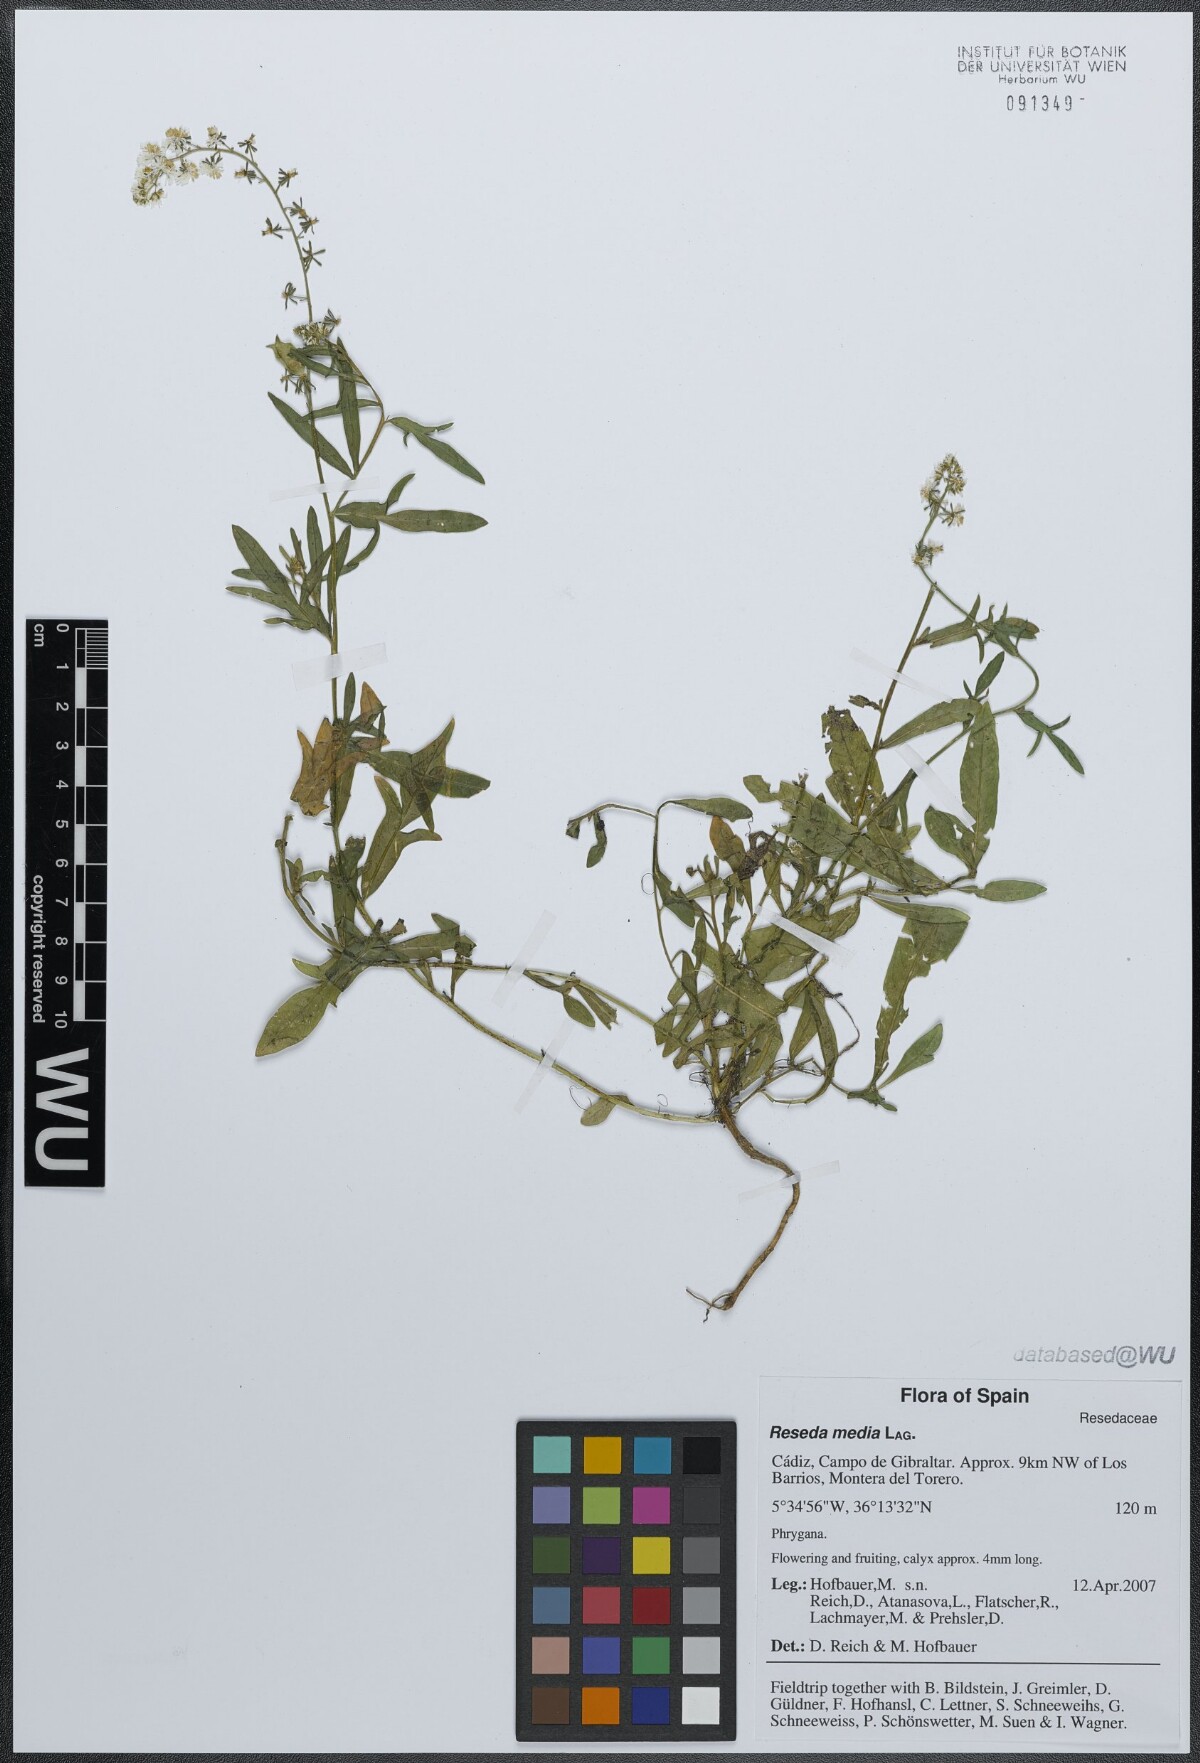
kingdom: Plantae
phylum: Tracheophyta
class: Magnoliopsida
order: Brassicales
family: Resedaceae
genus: Reseda
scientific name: Reseda media
